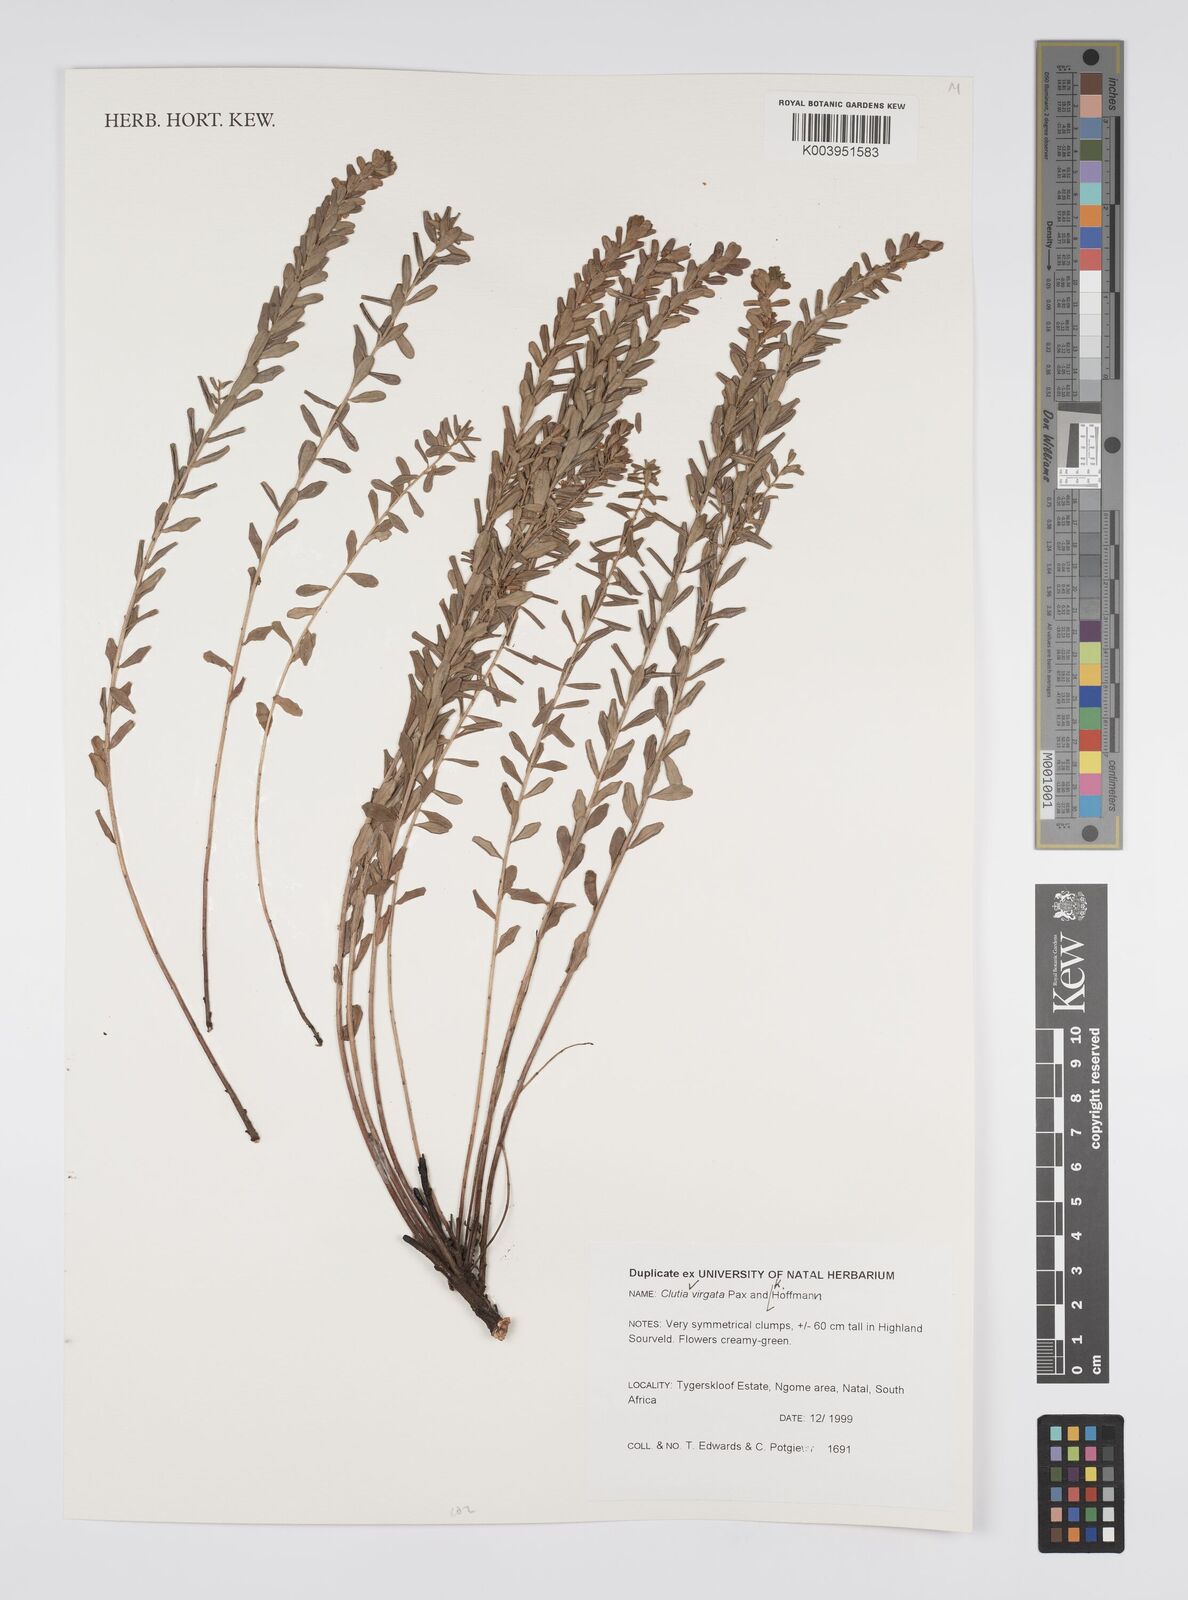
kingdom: Plantae
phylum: Tracheophyta
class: Magnoliopsida
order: Malpighiales
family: Peraceae
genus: Clutia
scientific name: Clutia virgata
